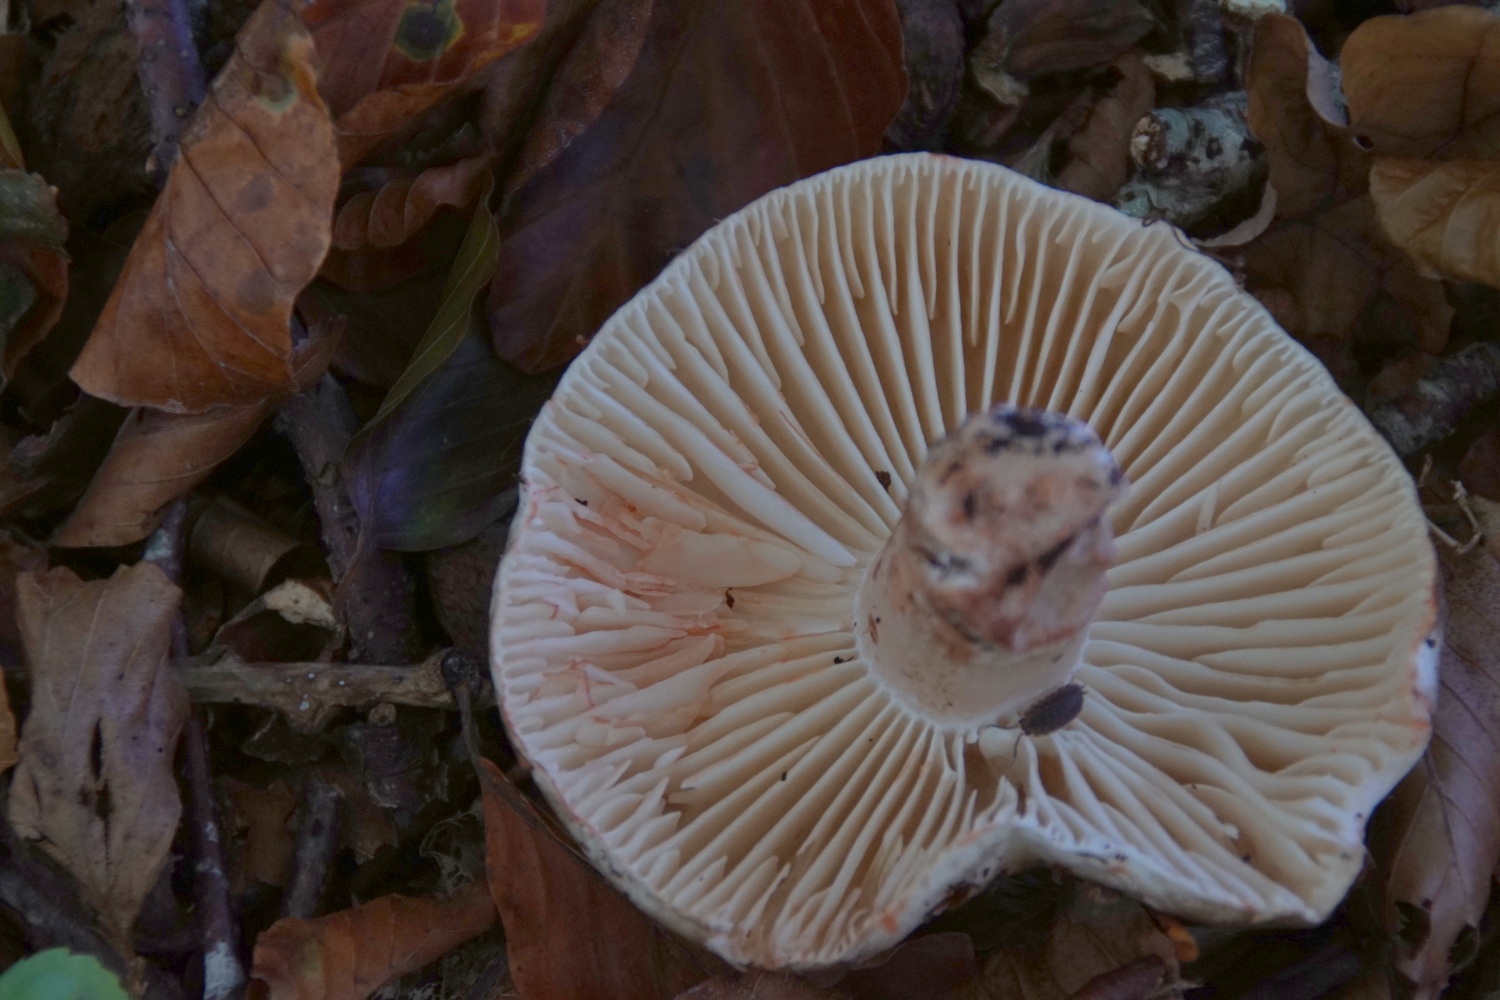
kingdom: Fungi
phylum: Basidiomycota
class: Agaricomycetes
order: Russulales
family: Russulaceae
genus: Russula
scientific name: Russula adusta
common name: sværtende skørhat
